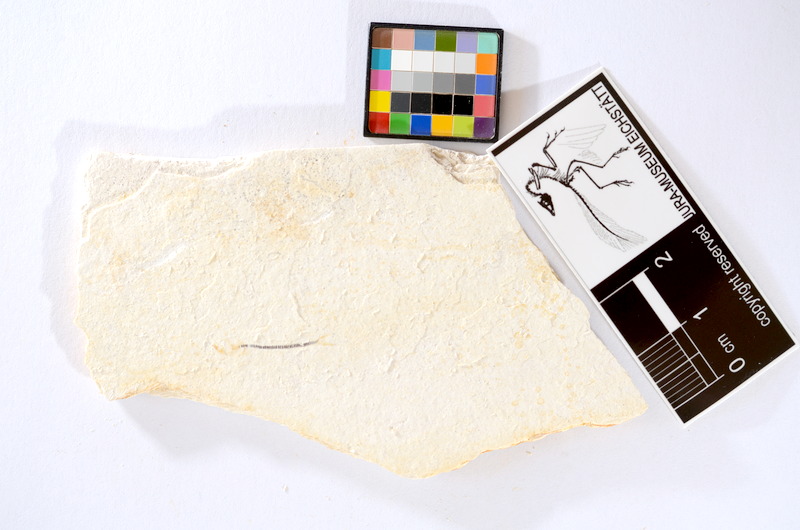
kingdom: Animalia
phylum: Chordata
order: Salmoniformes
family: Orthogonikleithridae
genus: Orthogonikleithrus
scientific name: Orthogonikleithrus hoelli
